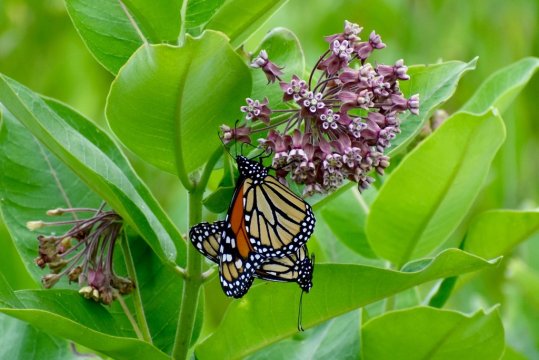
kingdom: Animalia
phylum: Arthropoda
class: Insecta
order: Lepidoptera
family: Nymphalidae
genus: Danaus
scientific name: Danaus plexippus
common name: Monarch
